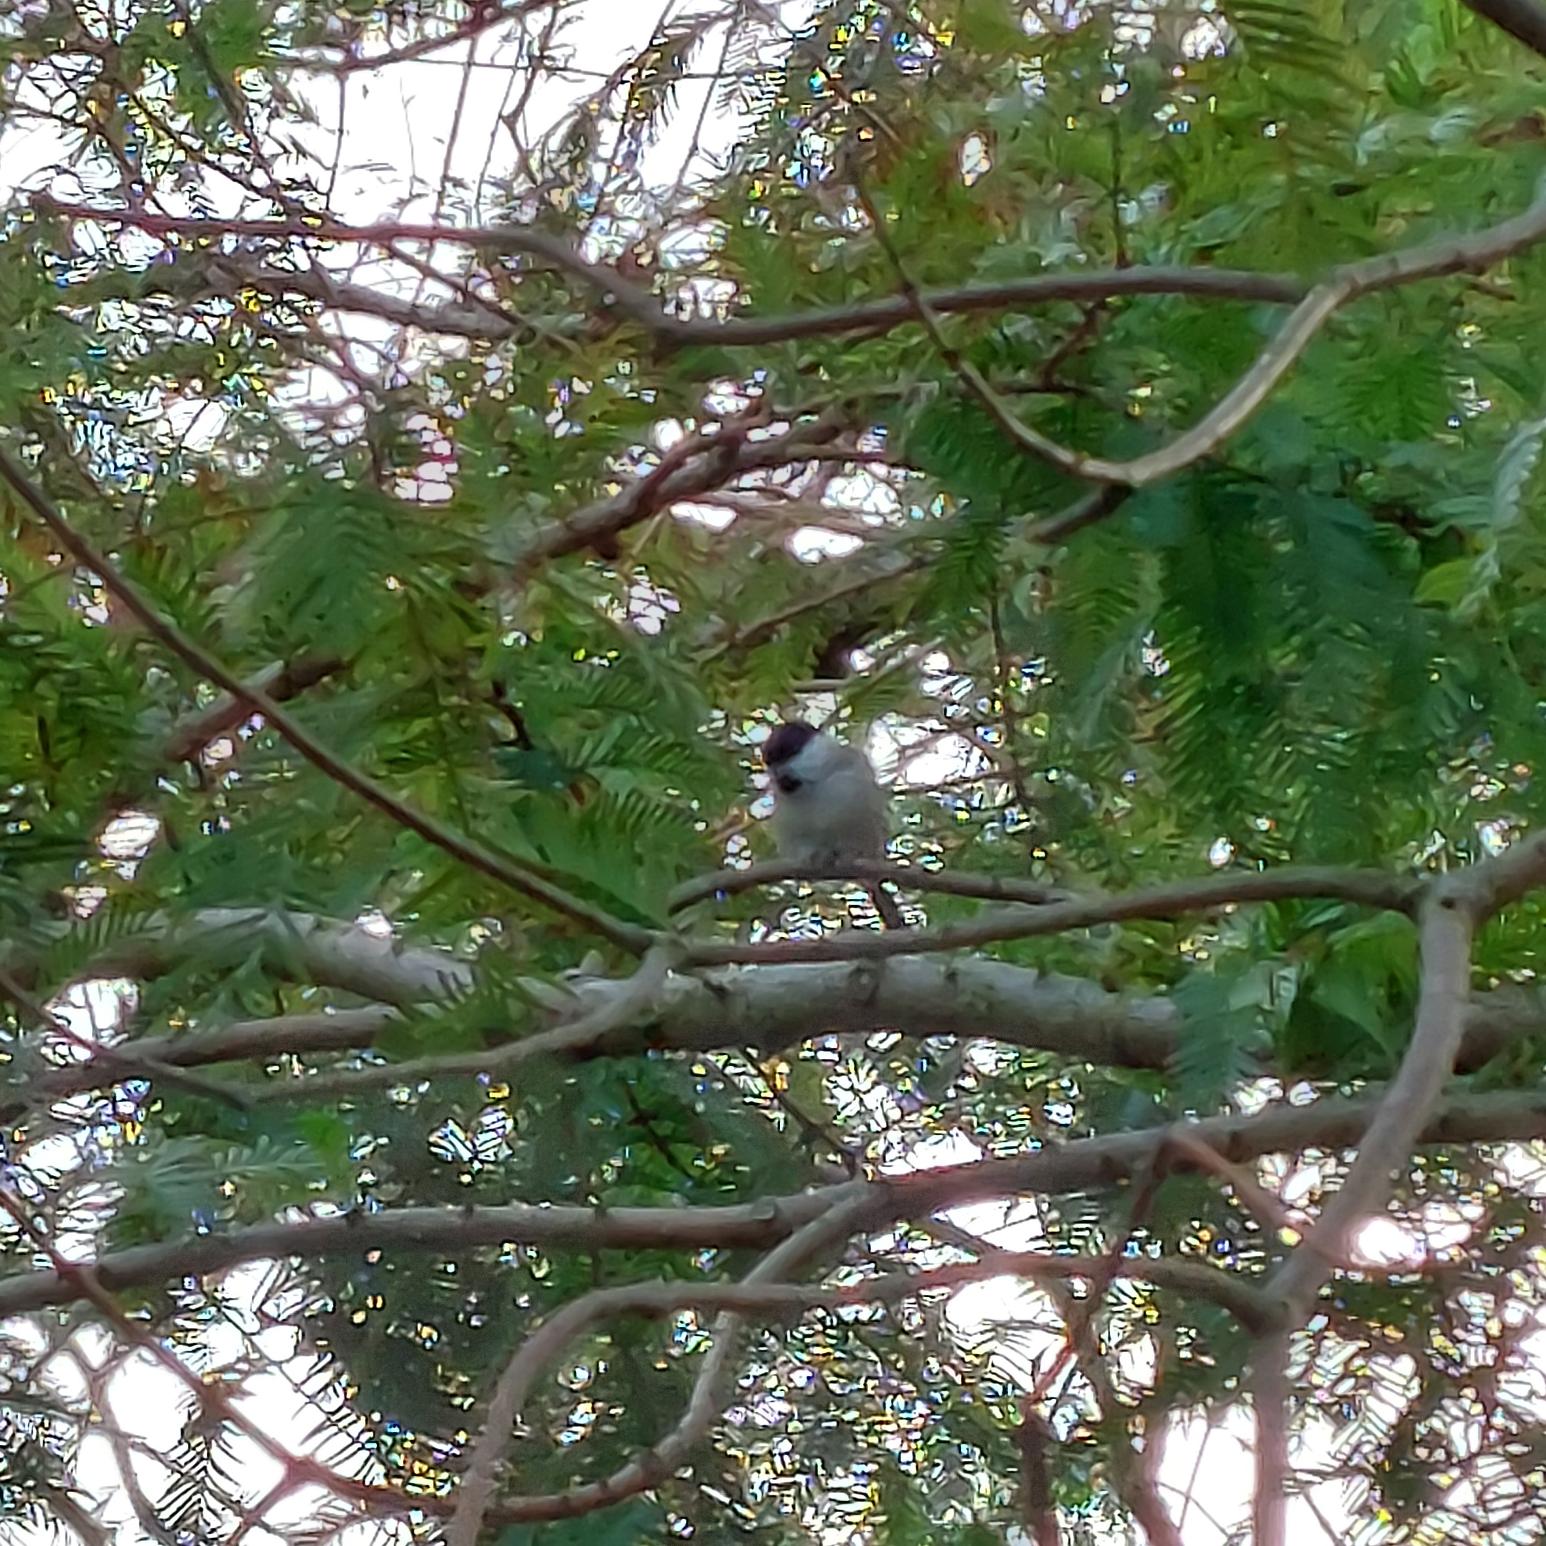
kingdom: Animalia
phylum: Chordata
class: Aves
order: Passeriformes
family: Paridae
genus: Poecile
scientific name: Poecile palustris
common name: Sumpmejse
